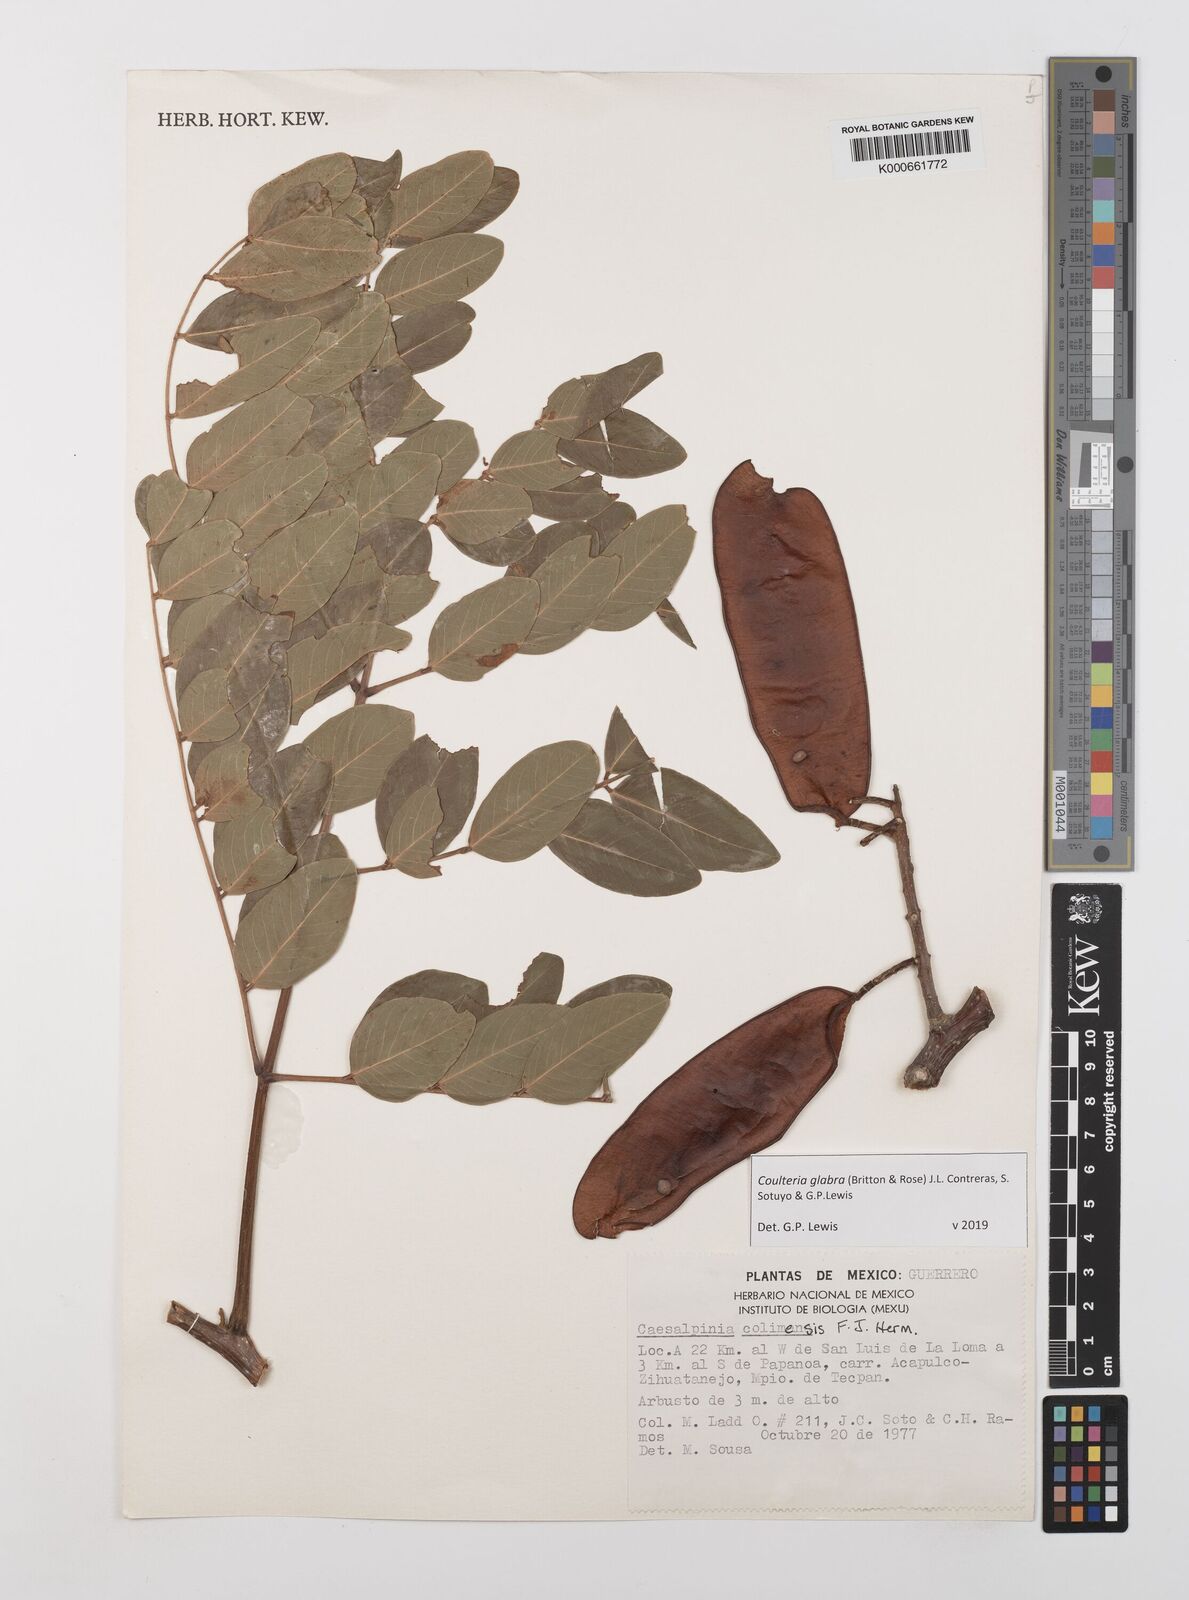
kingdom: Plantae
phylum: Tracheophyta
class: Magnoliopsida
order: Fabales
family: Fabaceae
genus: Coulteria
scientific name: Coulteria glabra
